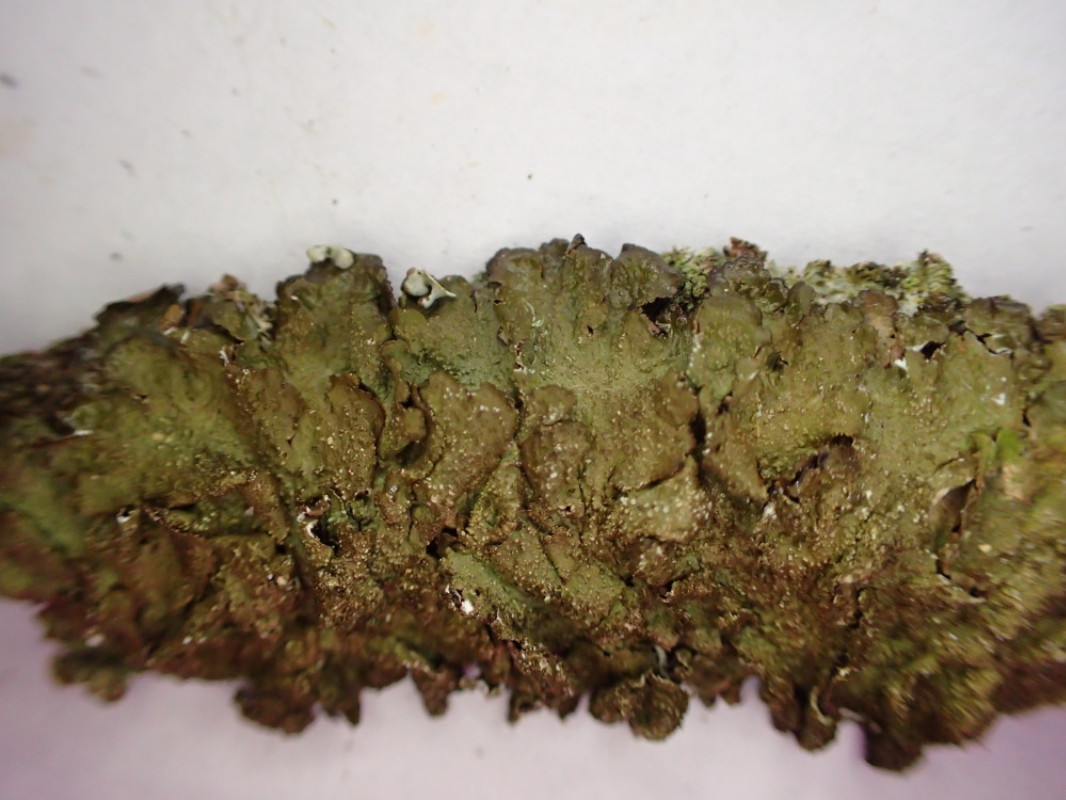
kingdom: Fungi
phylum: Ascomycota
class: Lecanoromycetes
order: Lecanorales
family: Parmeliaceae
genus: Melanelixia
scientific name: Melanelixia glabratula
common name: glinsende skållav
